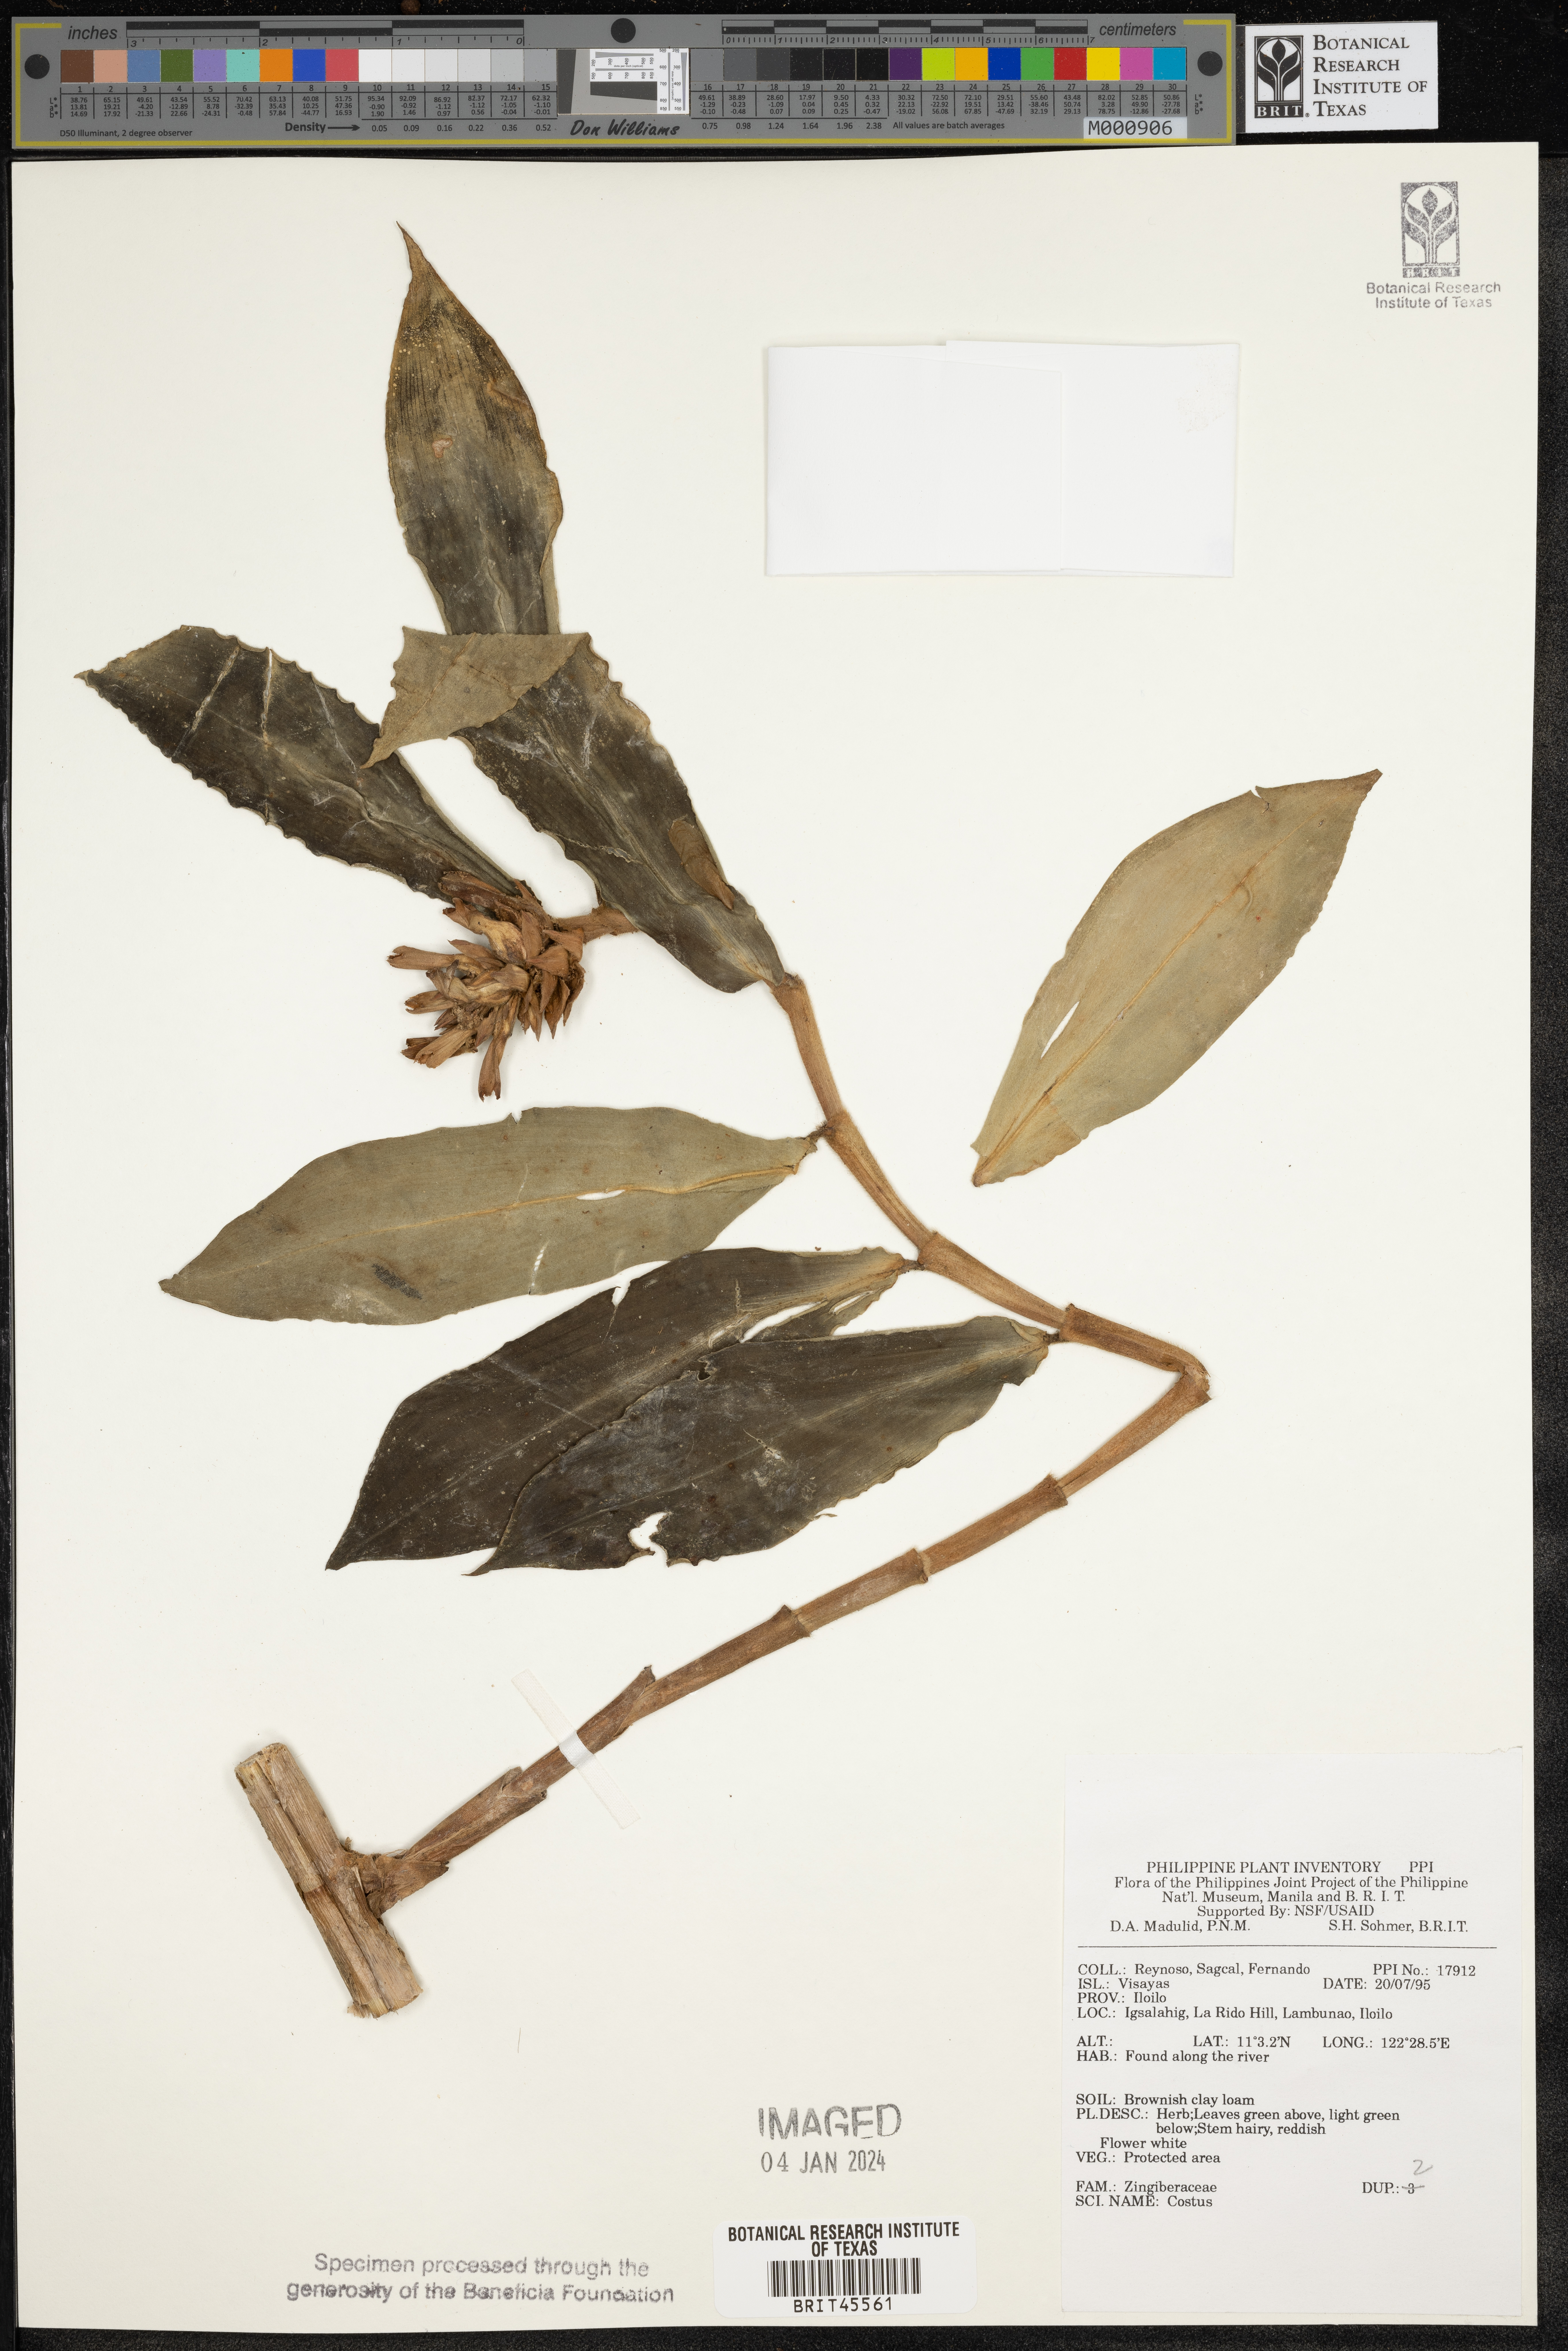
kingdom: Plantae
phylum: Tracheophyta
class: Liliopsida
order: Zingiberales
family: Costaceae
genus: Costus
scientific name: Costus
